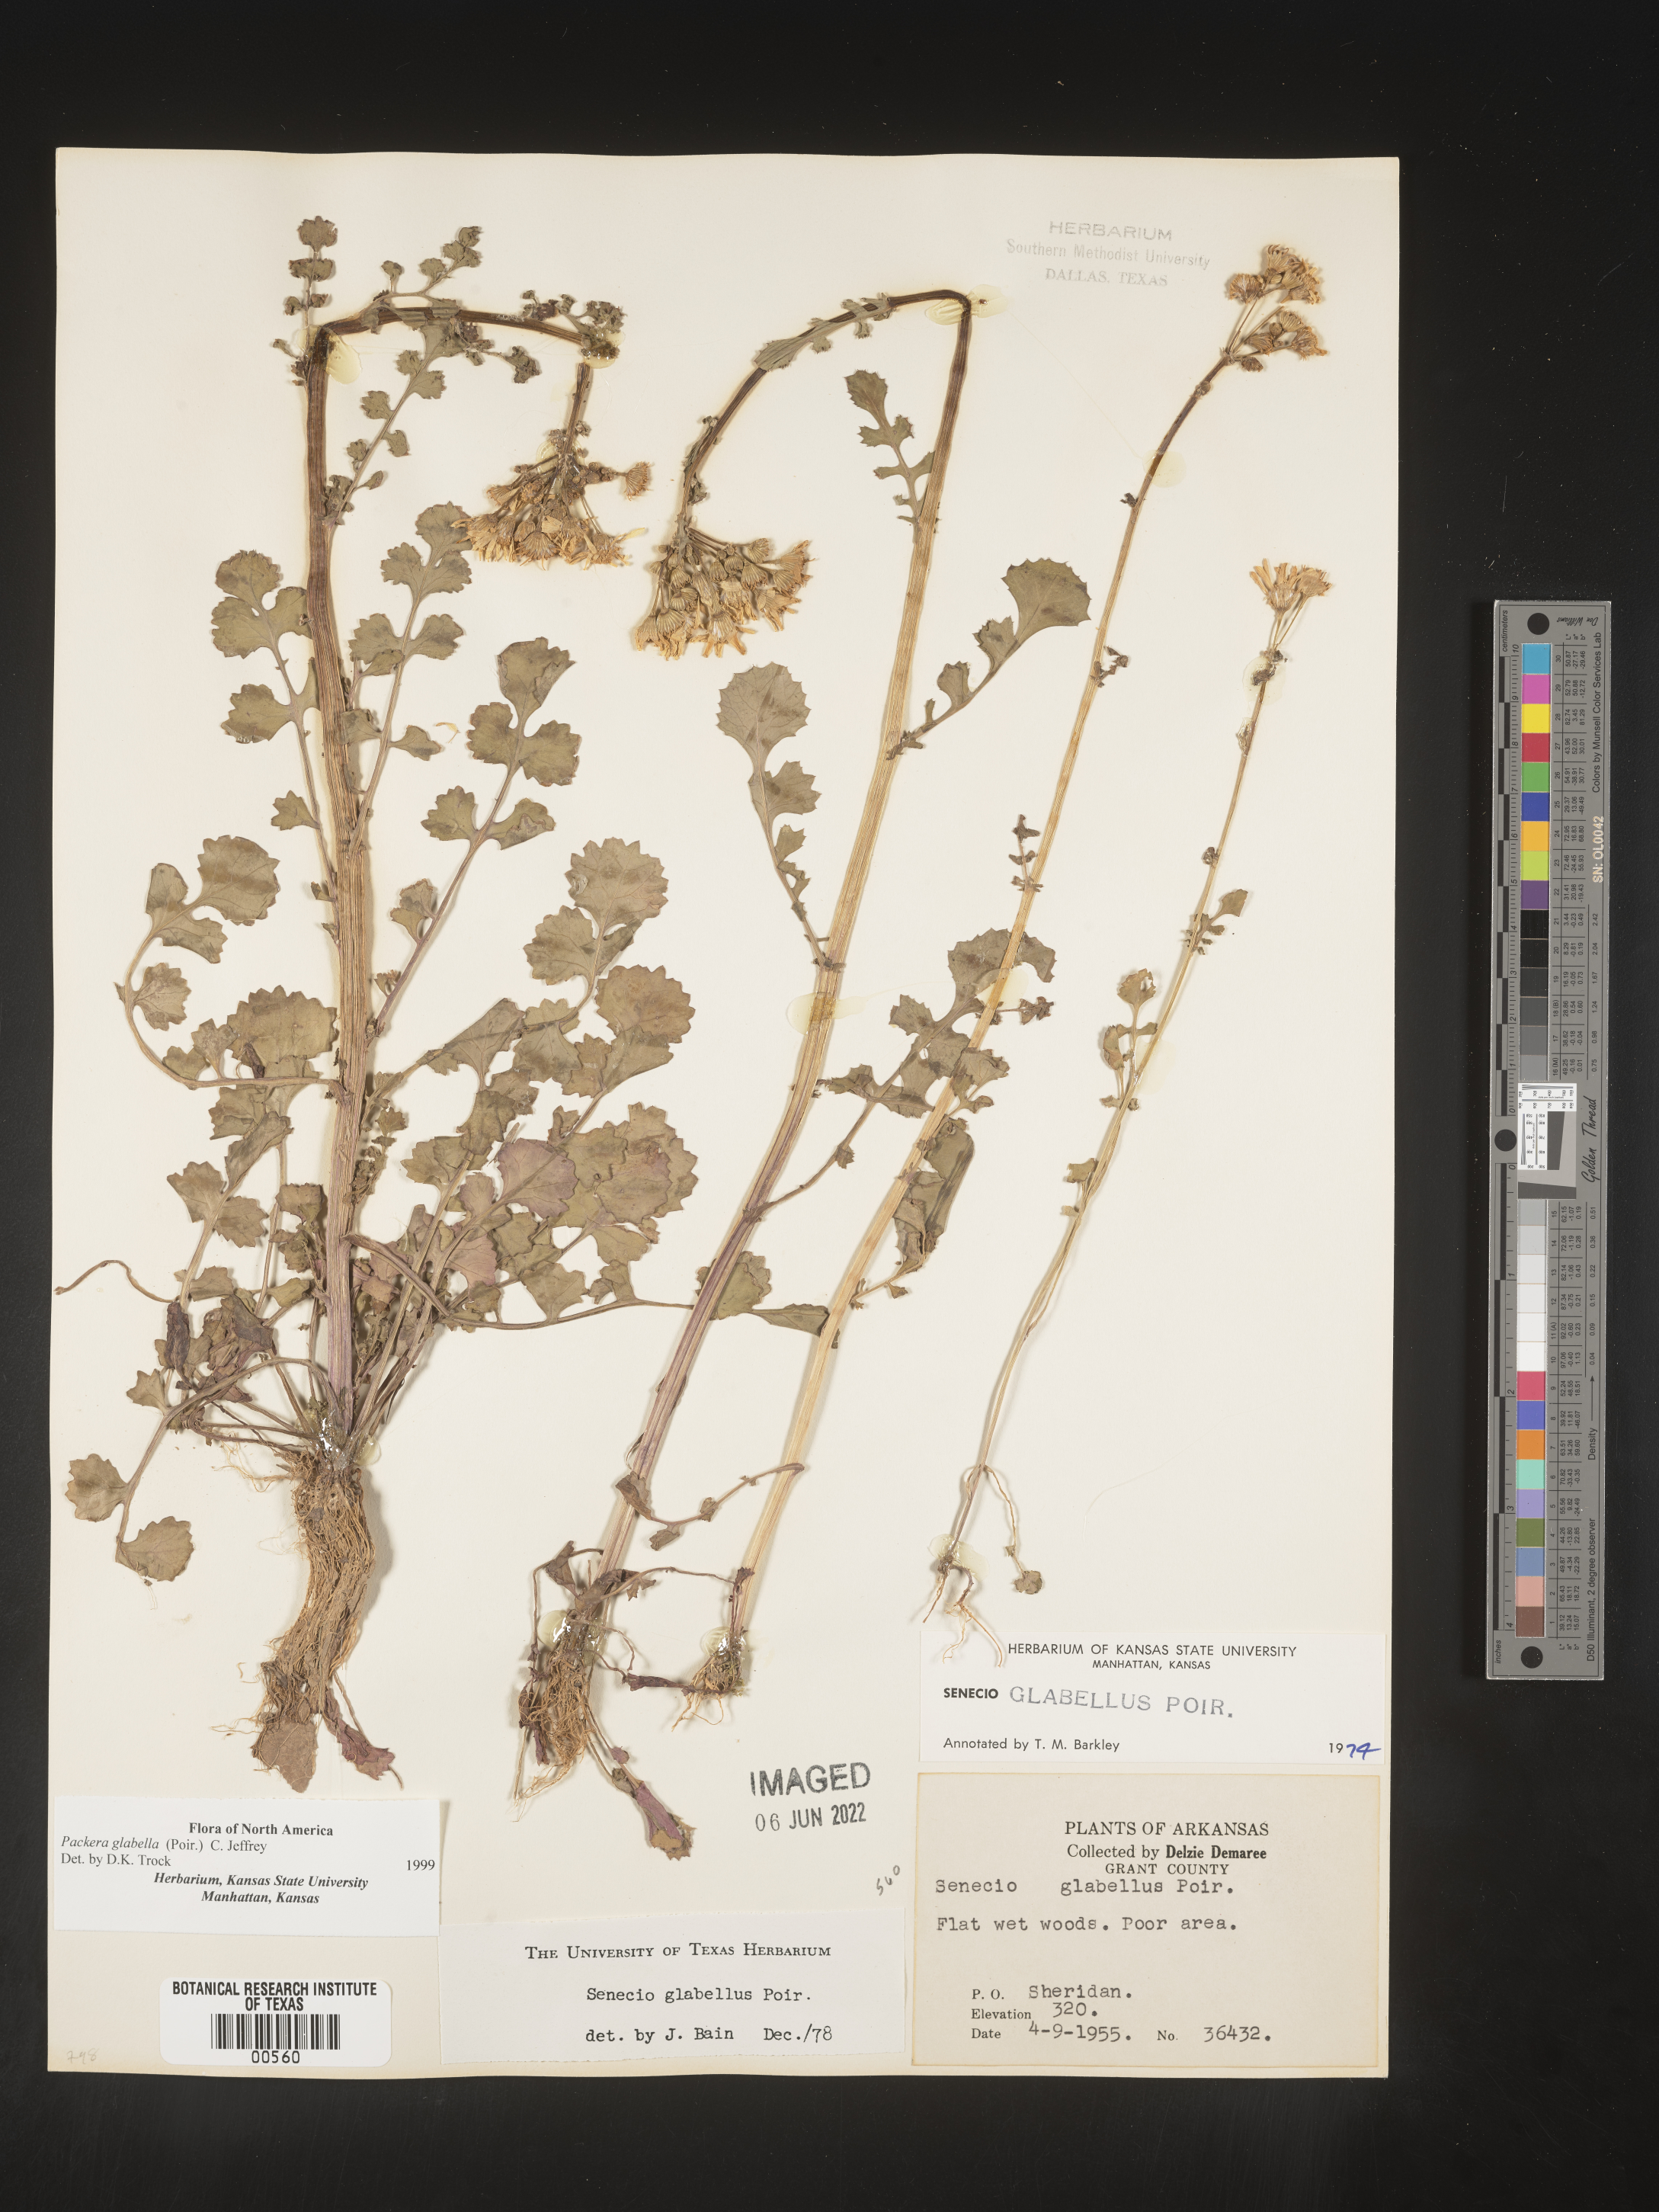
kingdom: Plantae
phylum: Tracheophyta
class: Magnoliopsida
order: Asterales
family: Asteraceae
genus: Packera
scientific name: Packera glabella
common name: Butterweed
